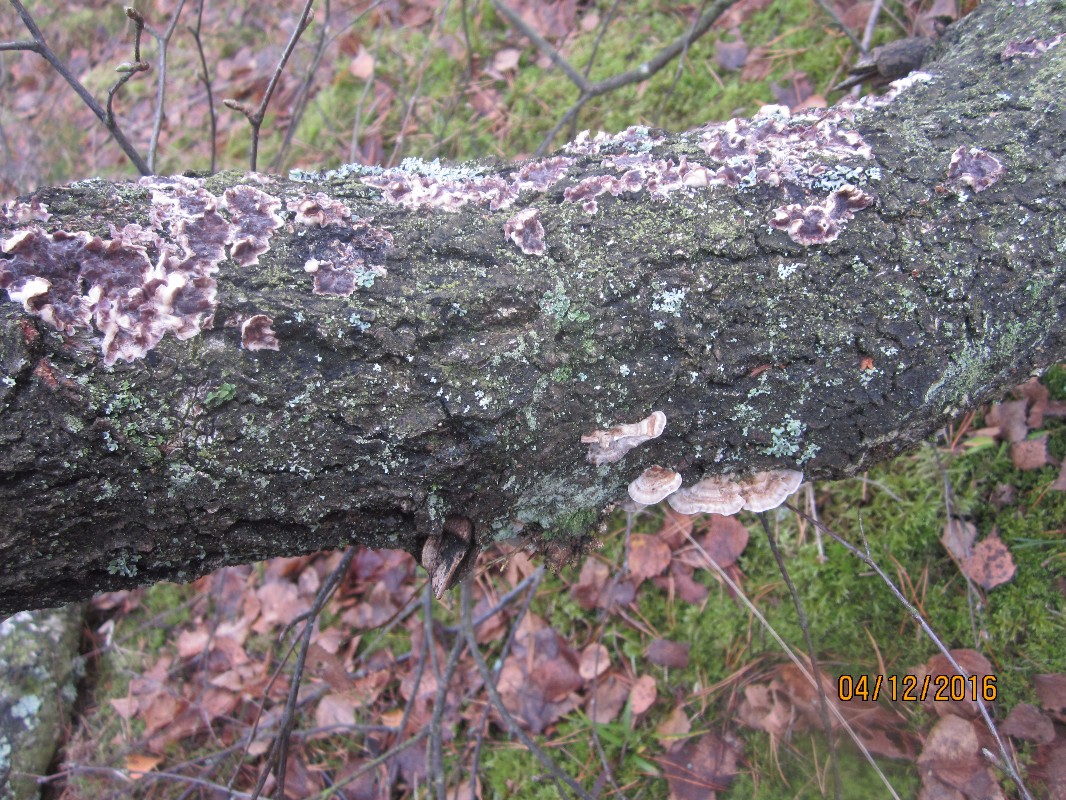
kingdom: Fungi
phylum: Basidiomycota
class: Agaricomycetes
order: Polyporales
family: Polyporaceae
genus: Trametes
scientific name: Trametes ochracea
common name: bæltet læderporesvamp
